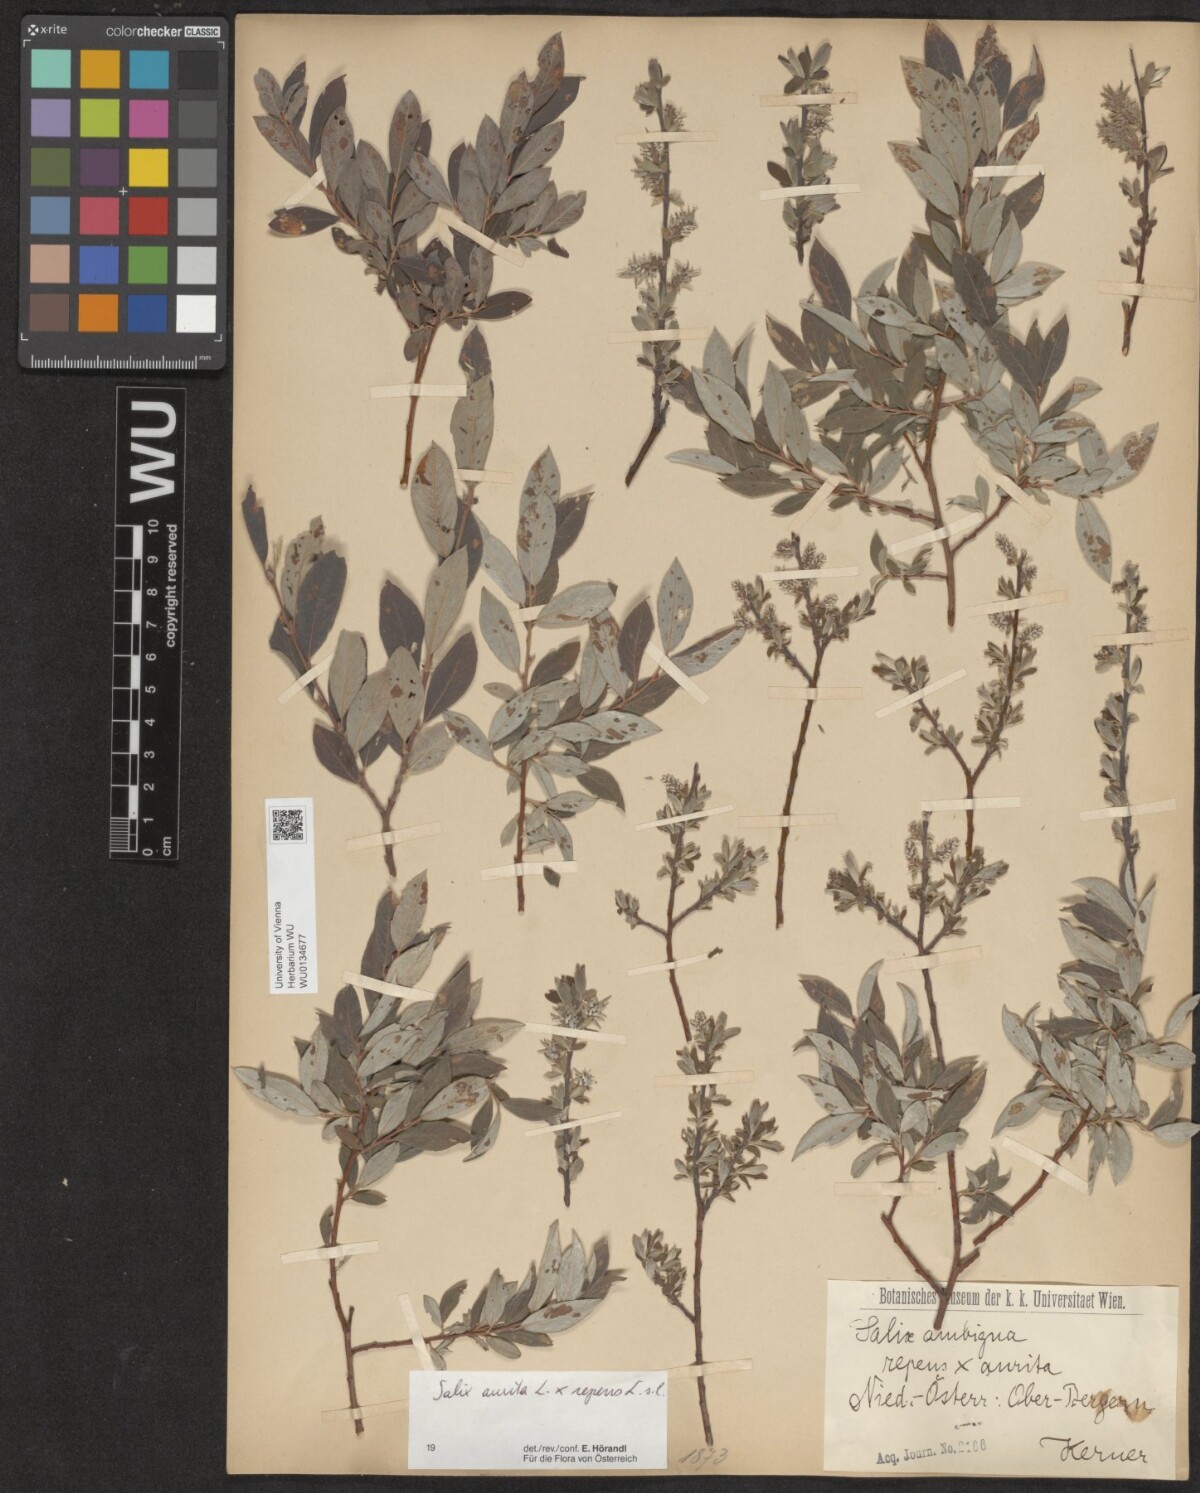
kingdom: Plantae
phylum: Tracheophyta
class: Magnoliopsida
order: Malpighiales
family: Salicaceae
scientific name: Salicaceae
